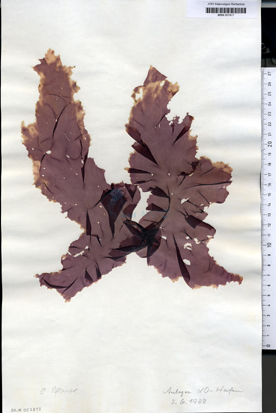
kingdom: Plantae
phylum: Rhodophyta
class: Bangiophyceae
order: Bangiales
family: Bangiaceae
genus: Porphyra
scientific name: Porphyra umbilicalis
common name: Purple laver
